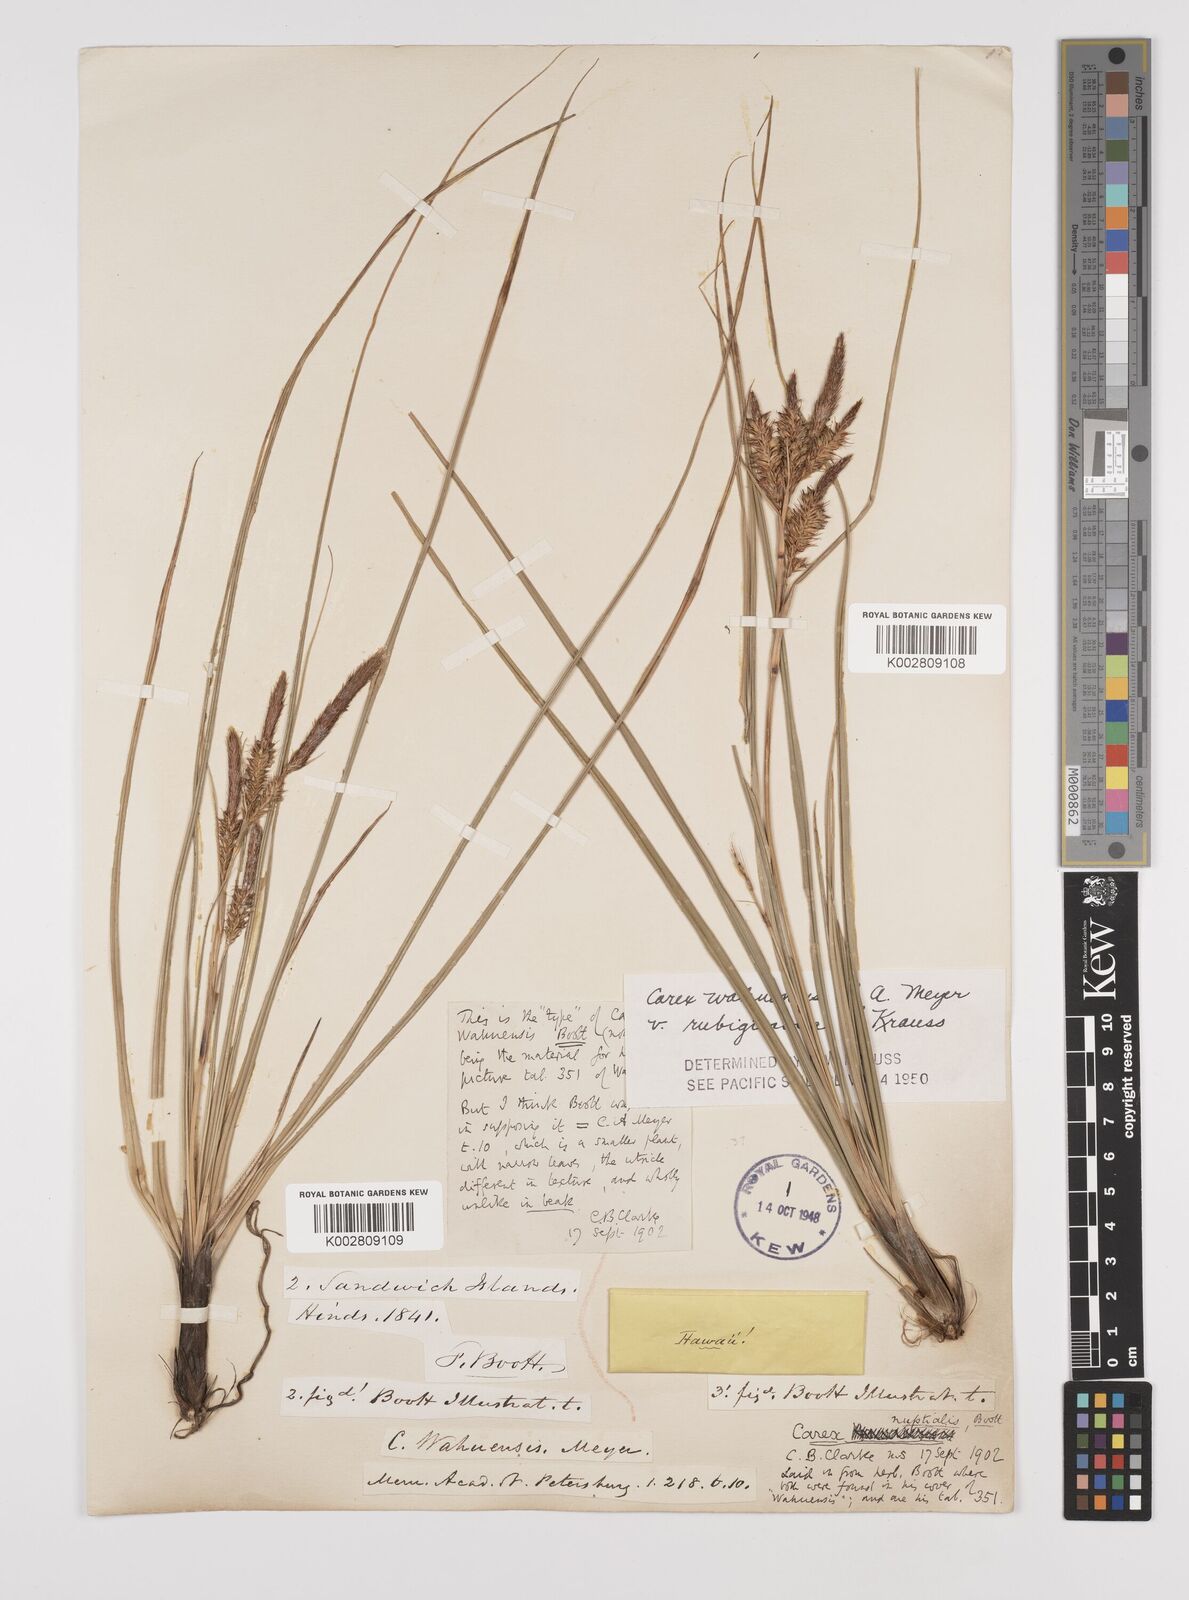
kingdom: Plantae
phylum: Tracheophyta
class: Liliopsida
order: Poales
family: Cyperaceae
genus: Carex
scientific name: Carex wahuensis
